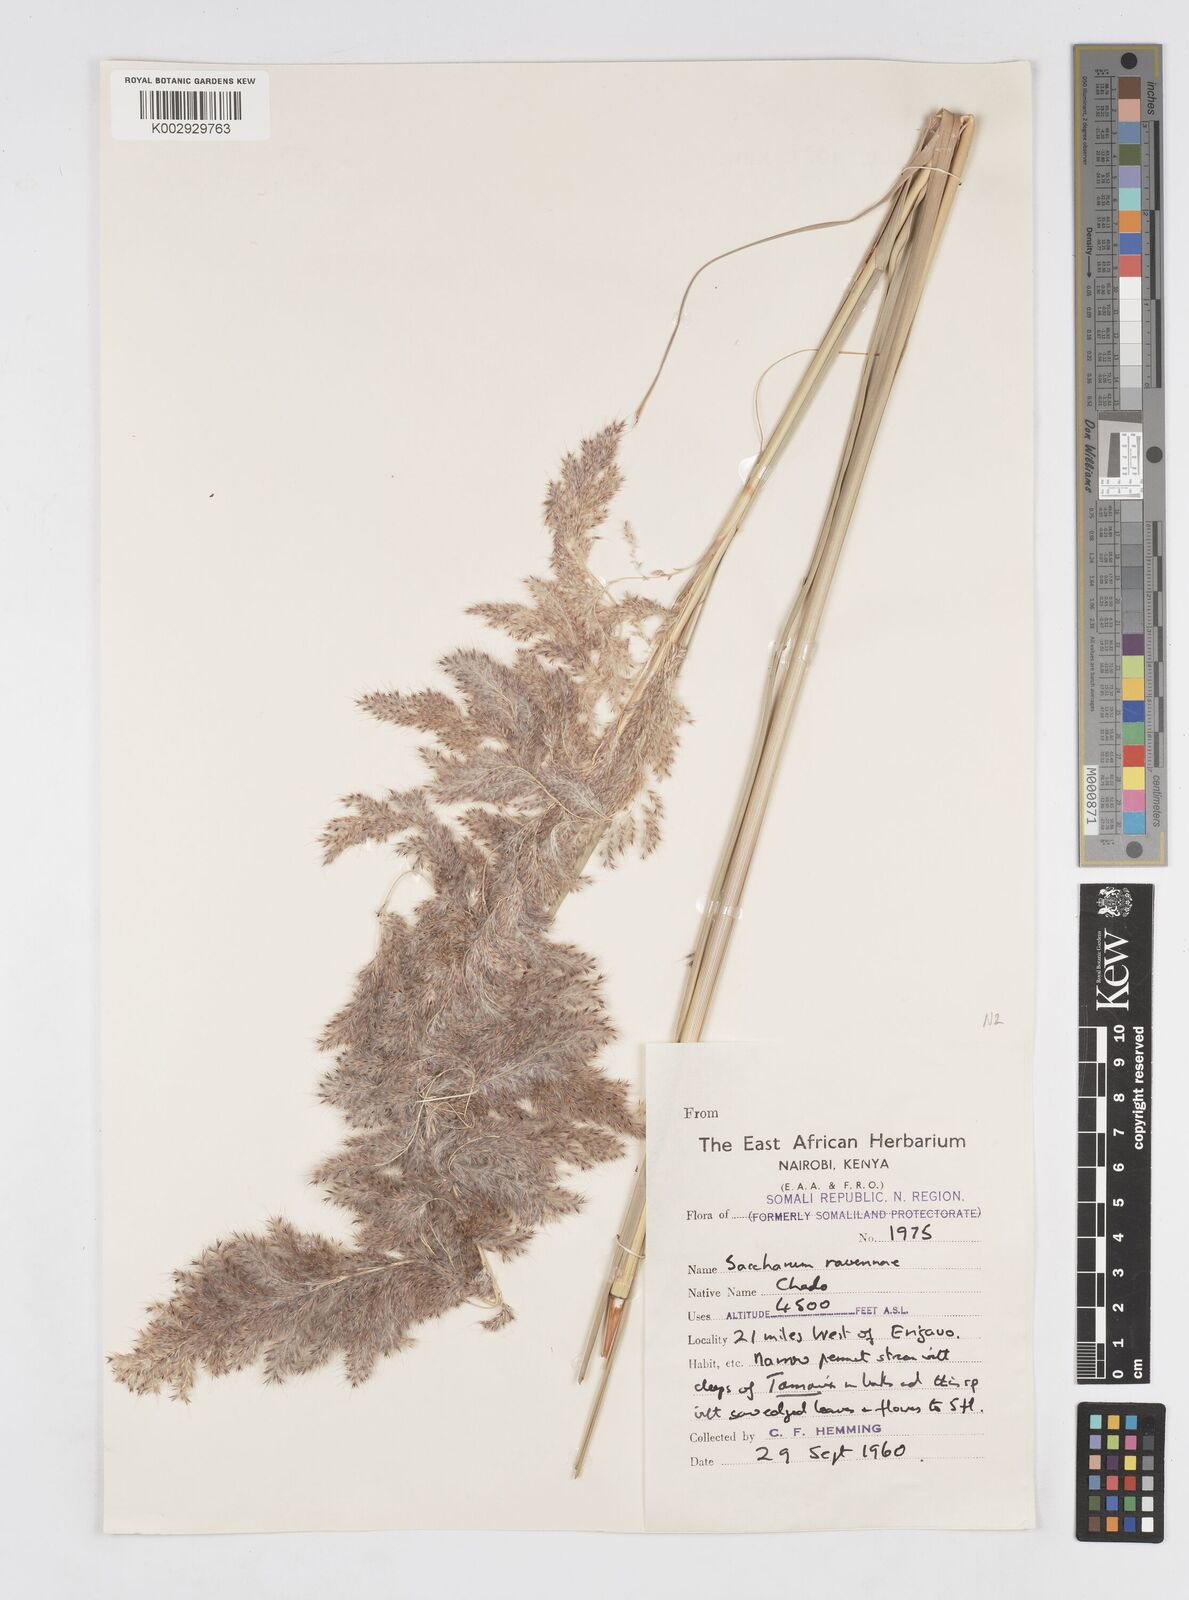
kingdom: Plantae
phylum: Tracheophyta
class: Liliopsida
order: Poales
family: Poaceae
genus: Tripidium
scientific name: Tripidium ravennae
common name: Ravenna grass
